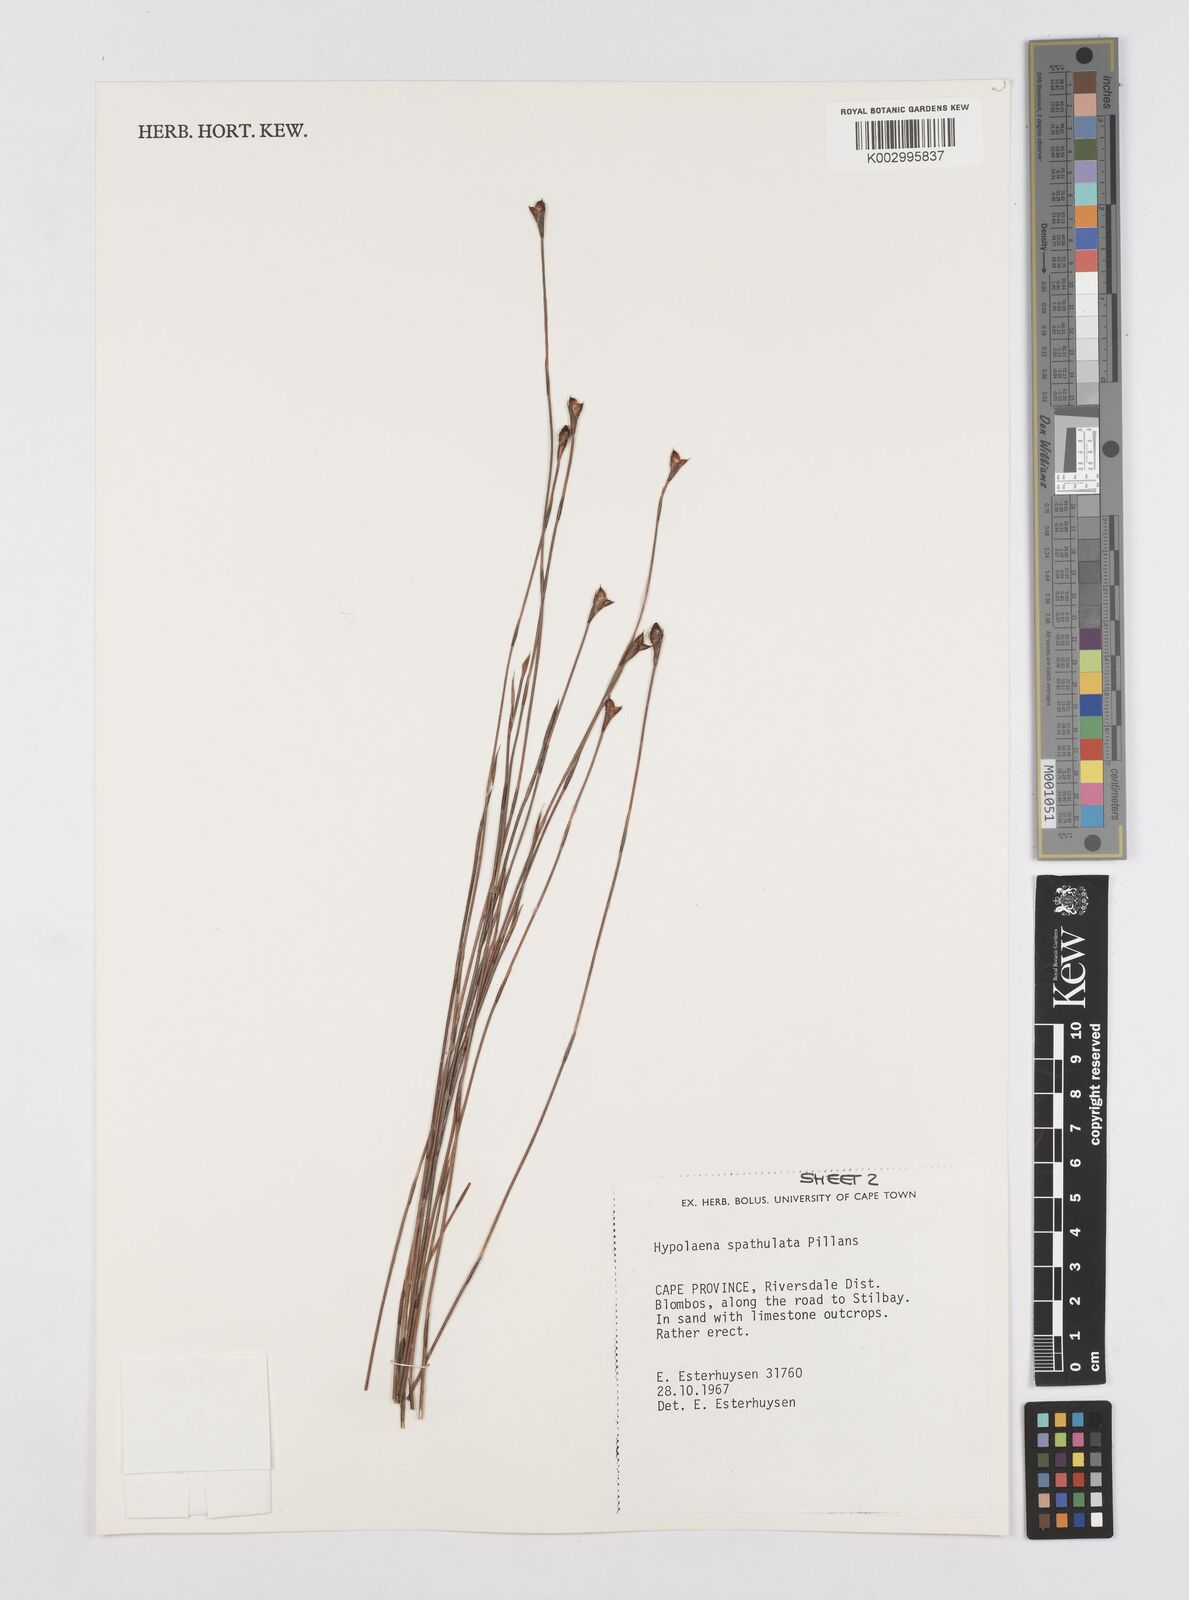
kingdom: Plantae
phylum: Tracheophyta
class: Liliopsida
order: Poales
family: Restionaceae
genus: Mastersiella
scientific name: Mastersiella spathulata
